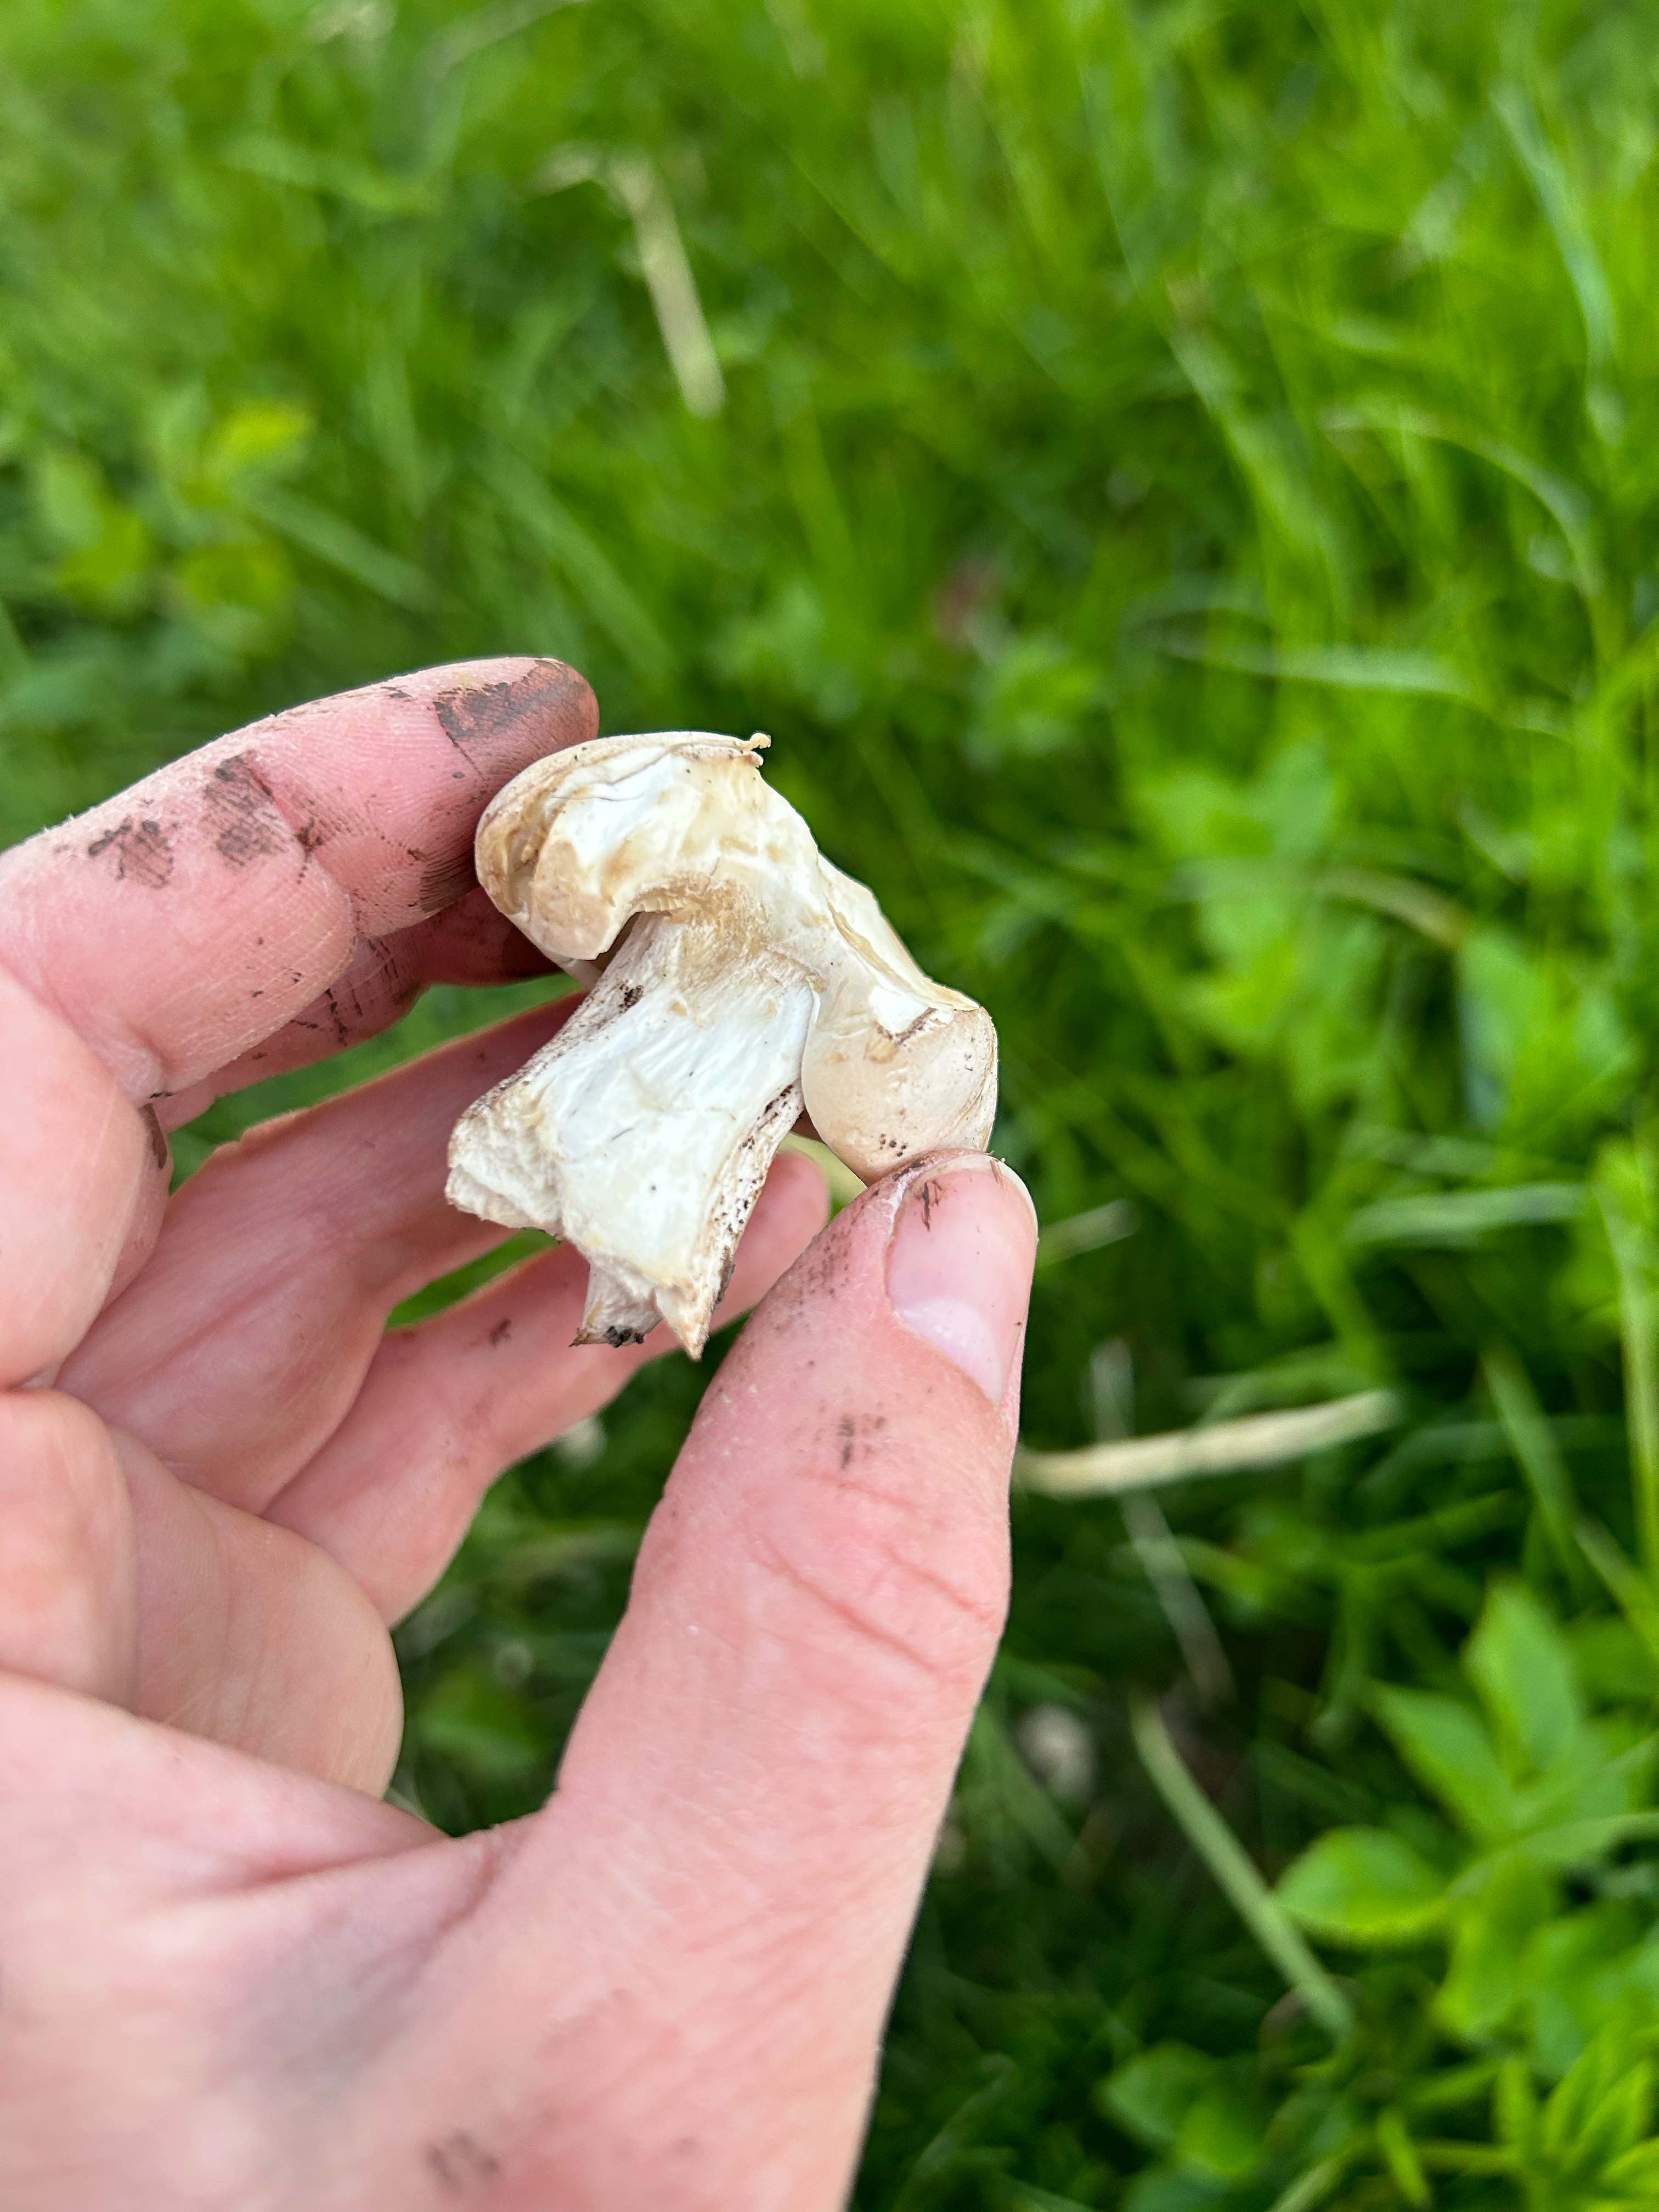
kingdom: Fungi
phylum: Basidiomycota
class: Agaricomycetes
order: Agaricales
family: Lyophyllaceae
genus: Calocybe
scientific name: Calocybe gambosa
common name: vårmusseron
